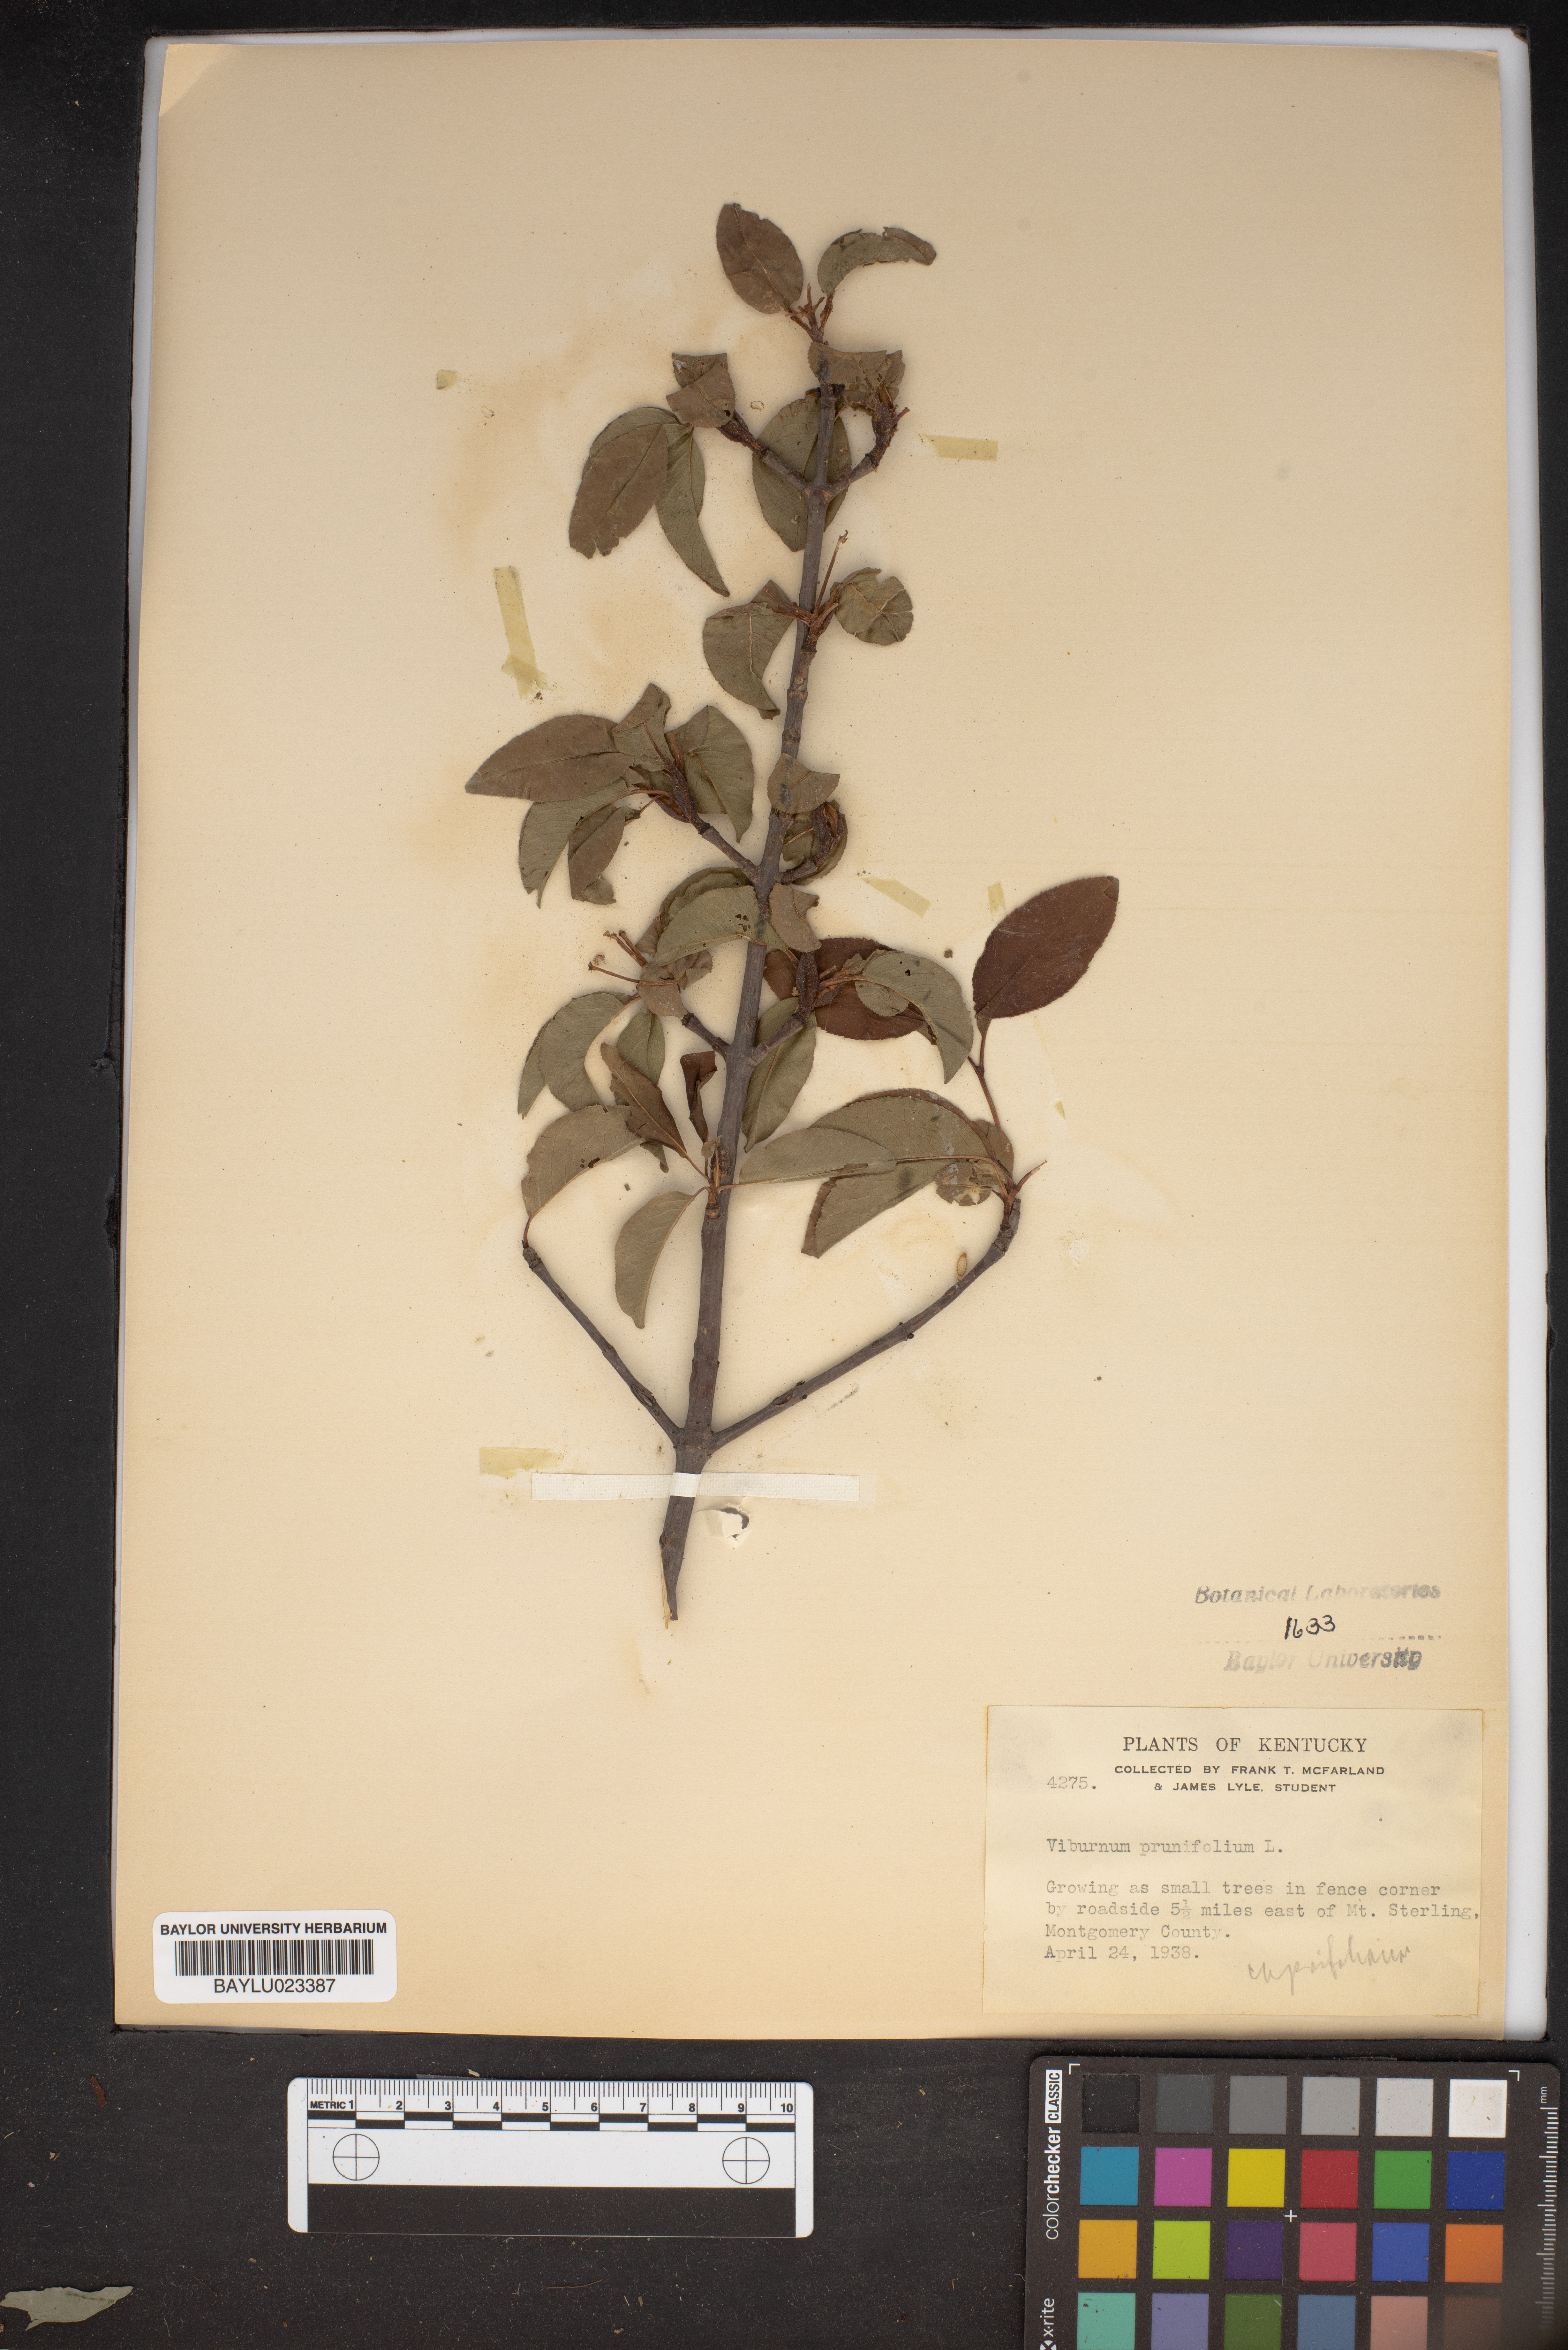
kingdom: Plantae
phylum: Tracheophyta
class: Magnoliopsida
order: Dipsacales
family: Viburnaceae
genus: Viburnum
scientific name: Viburnum prunifolium
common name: Black haw
